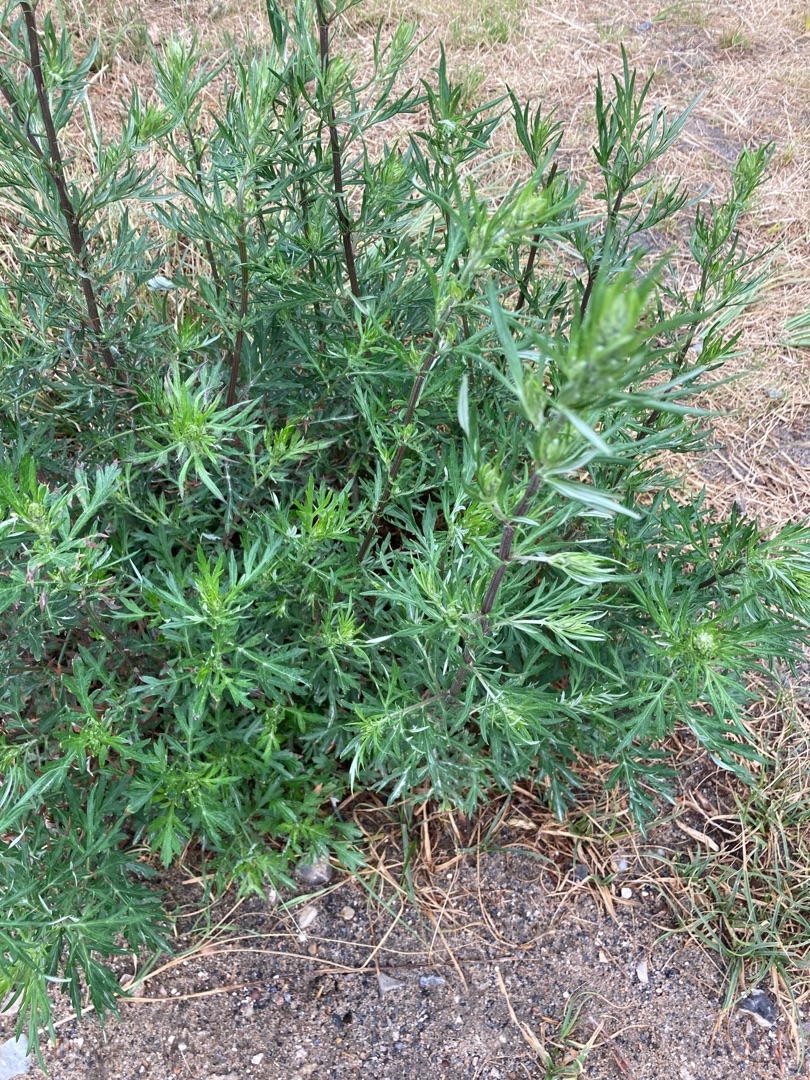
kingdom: Plantae
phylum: Tracheophyta
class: Magnoliopsida
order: Asterales
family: Asteraceae
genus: Artemisia
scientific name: Artemisia vulgaris
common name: Grå-bynke
